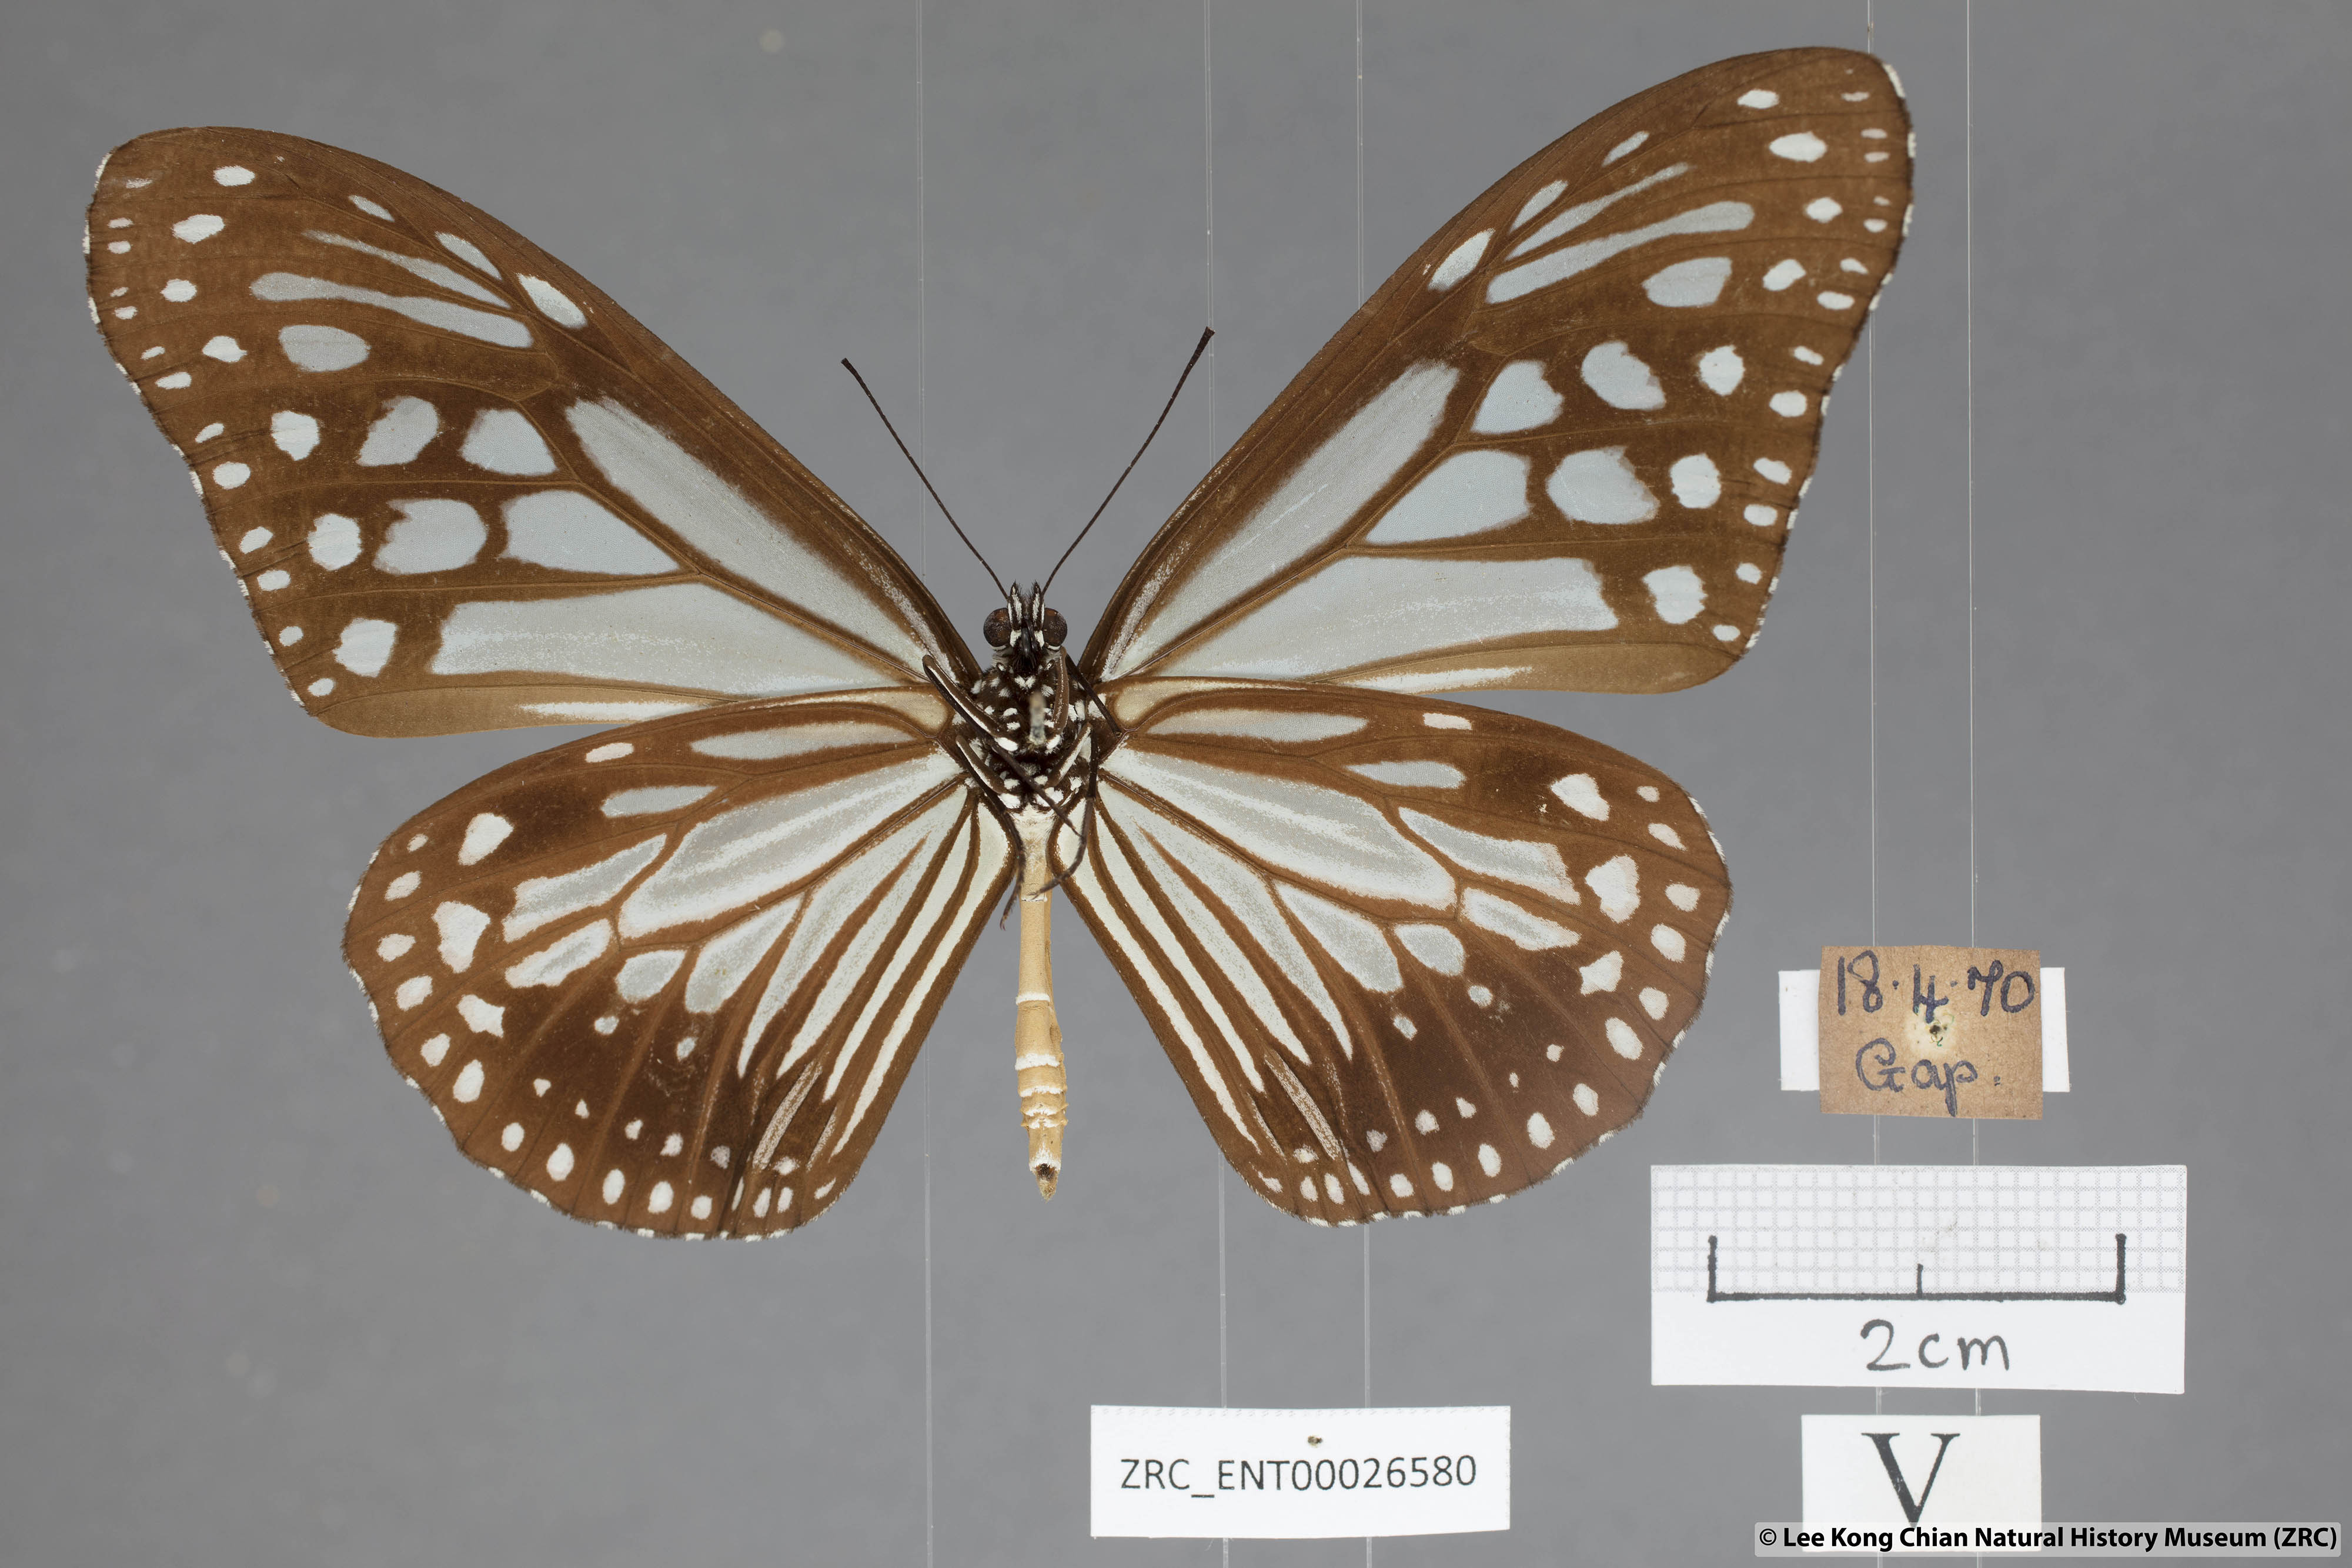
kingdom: Animalia
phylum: Arthropoda
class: Insecta
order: Lepidoptera
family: Nymphalidae
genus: Parantica
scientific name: Parantica melaneus
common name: Chocolate tiger
